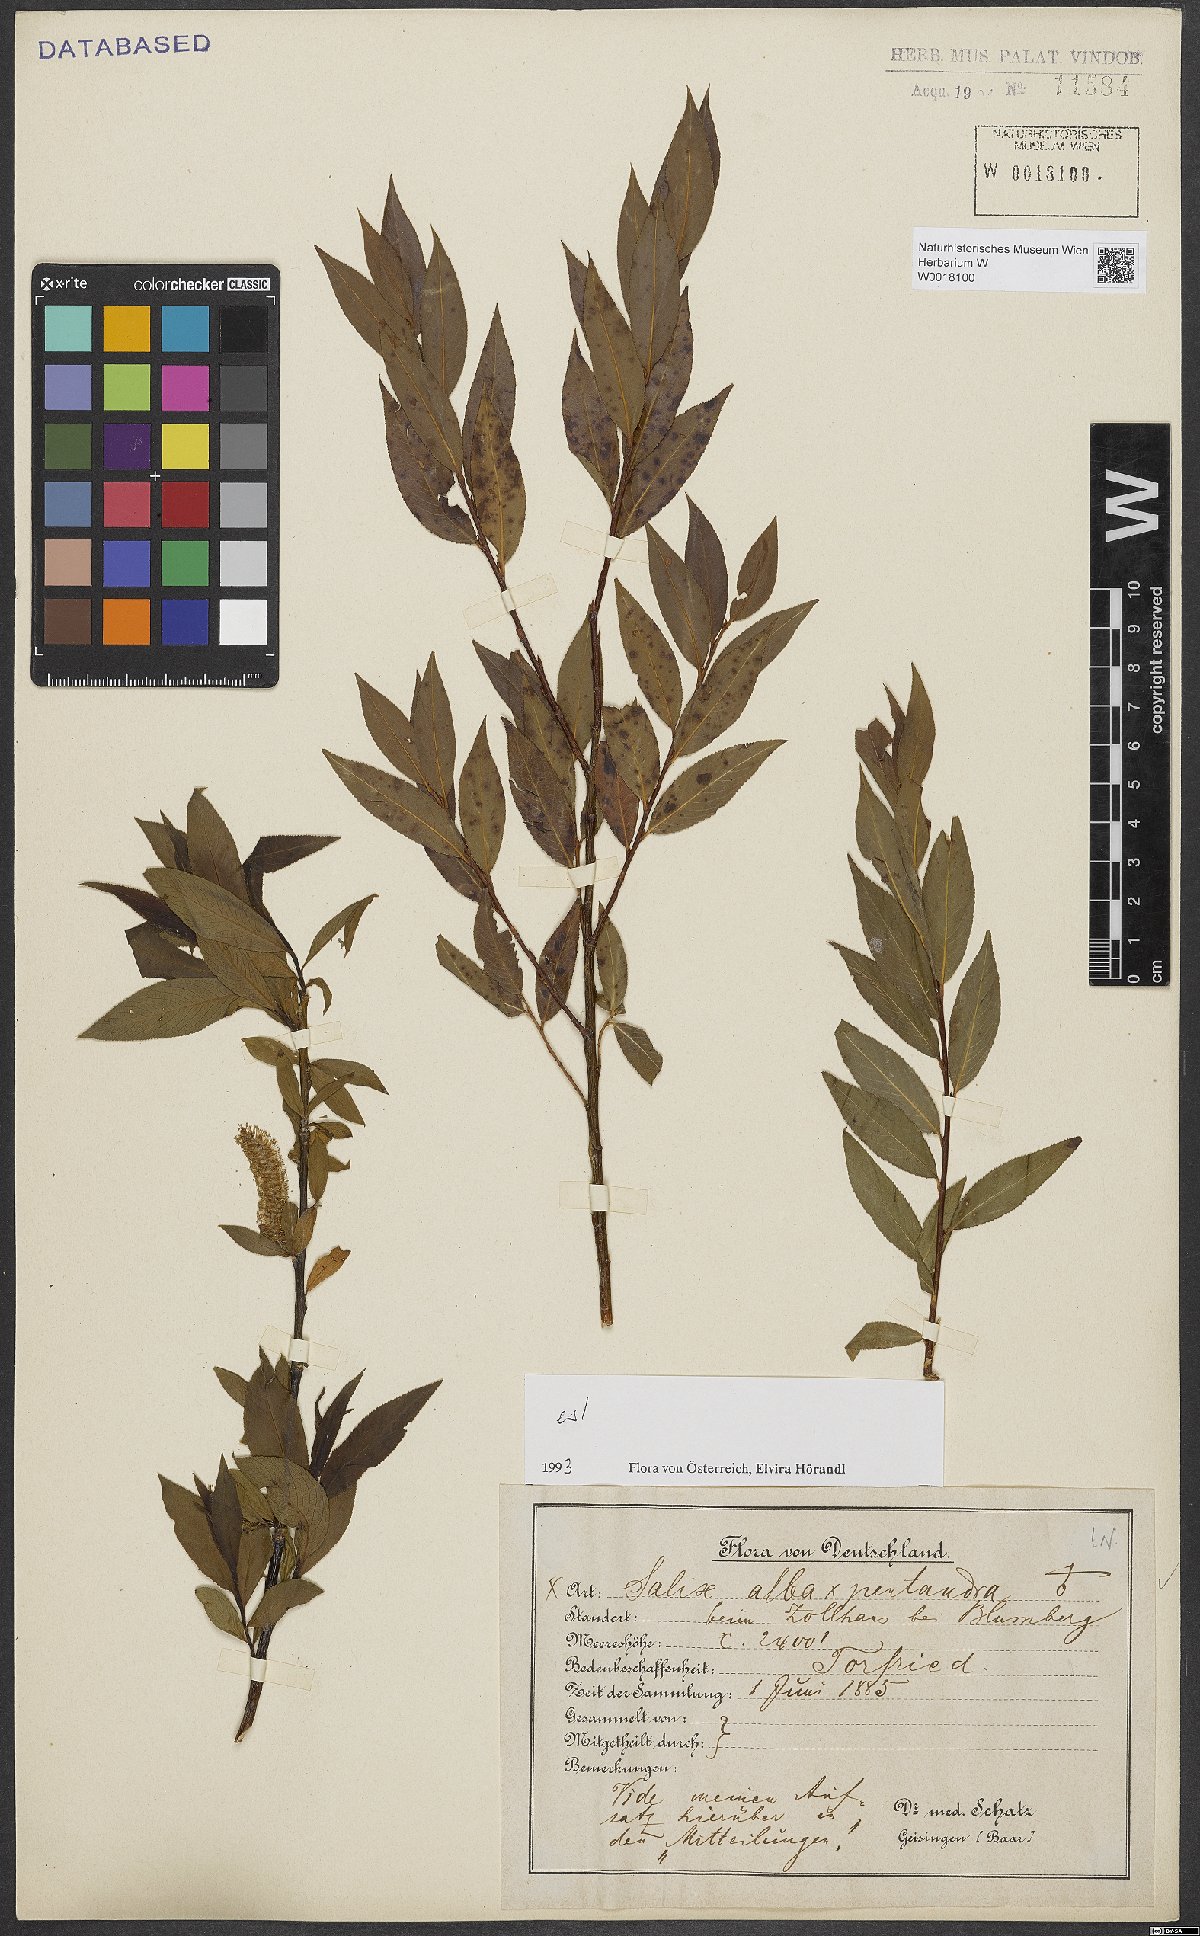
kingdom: Plantae
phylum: Tracheophyta
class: Magnoliopsida
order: Malpighiales
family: Salicaceae
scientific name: Salicaceae
